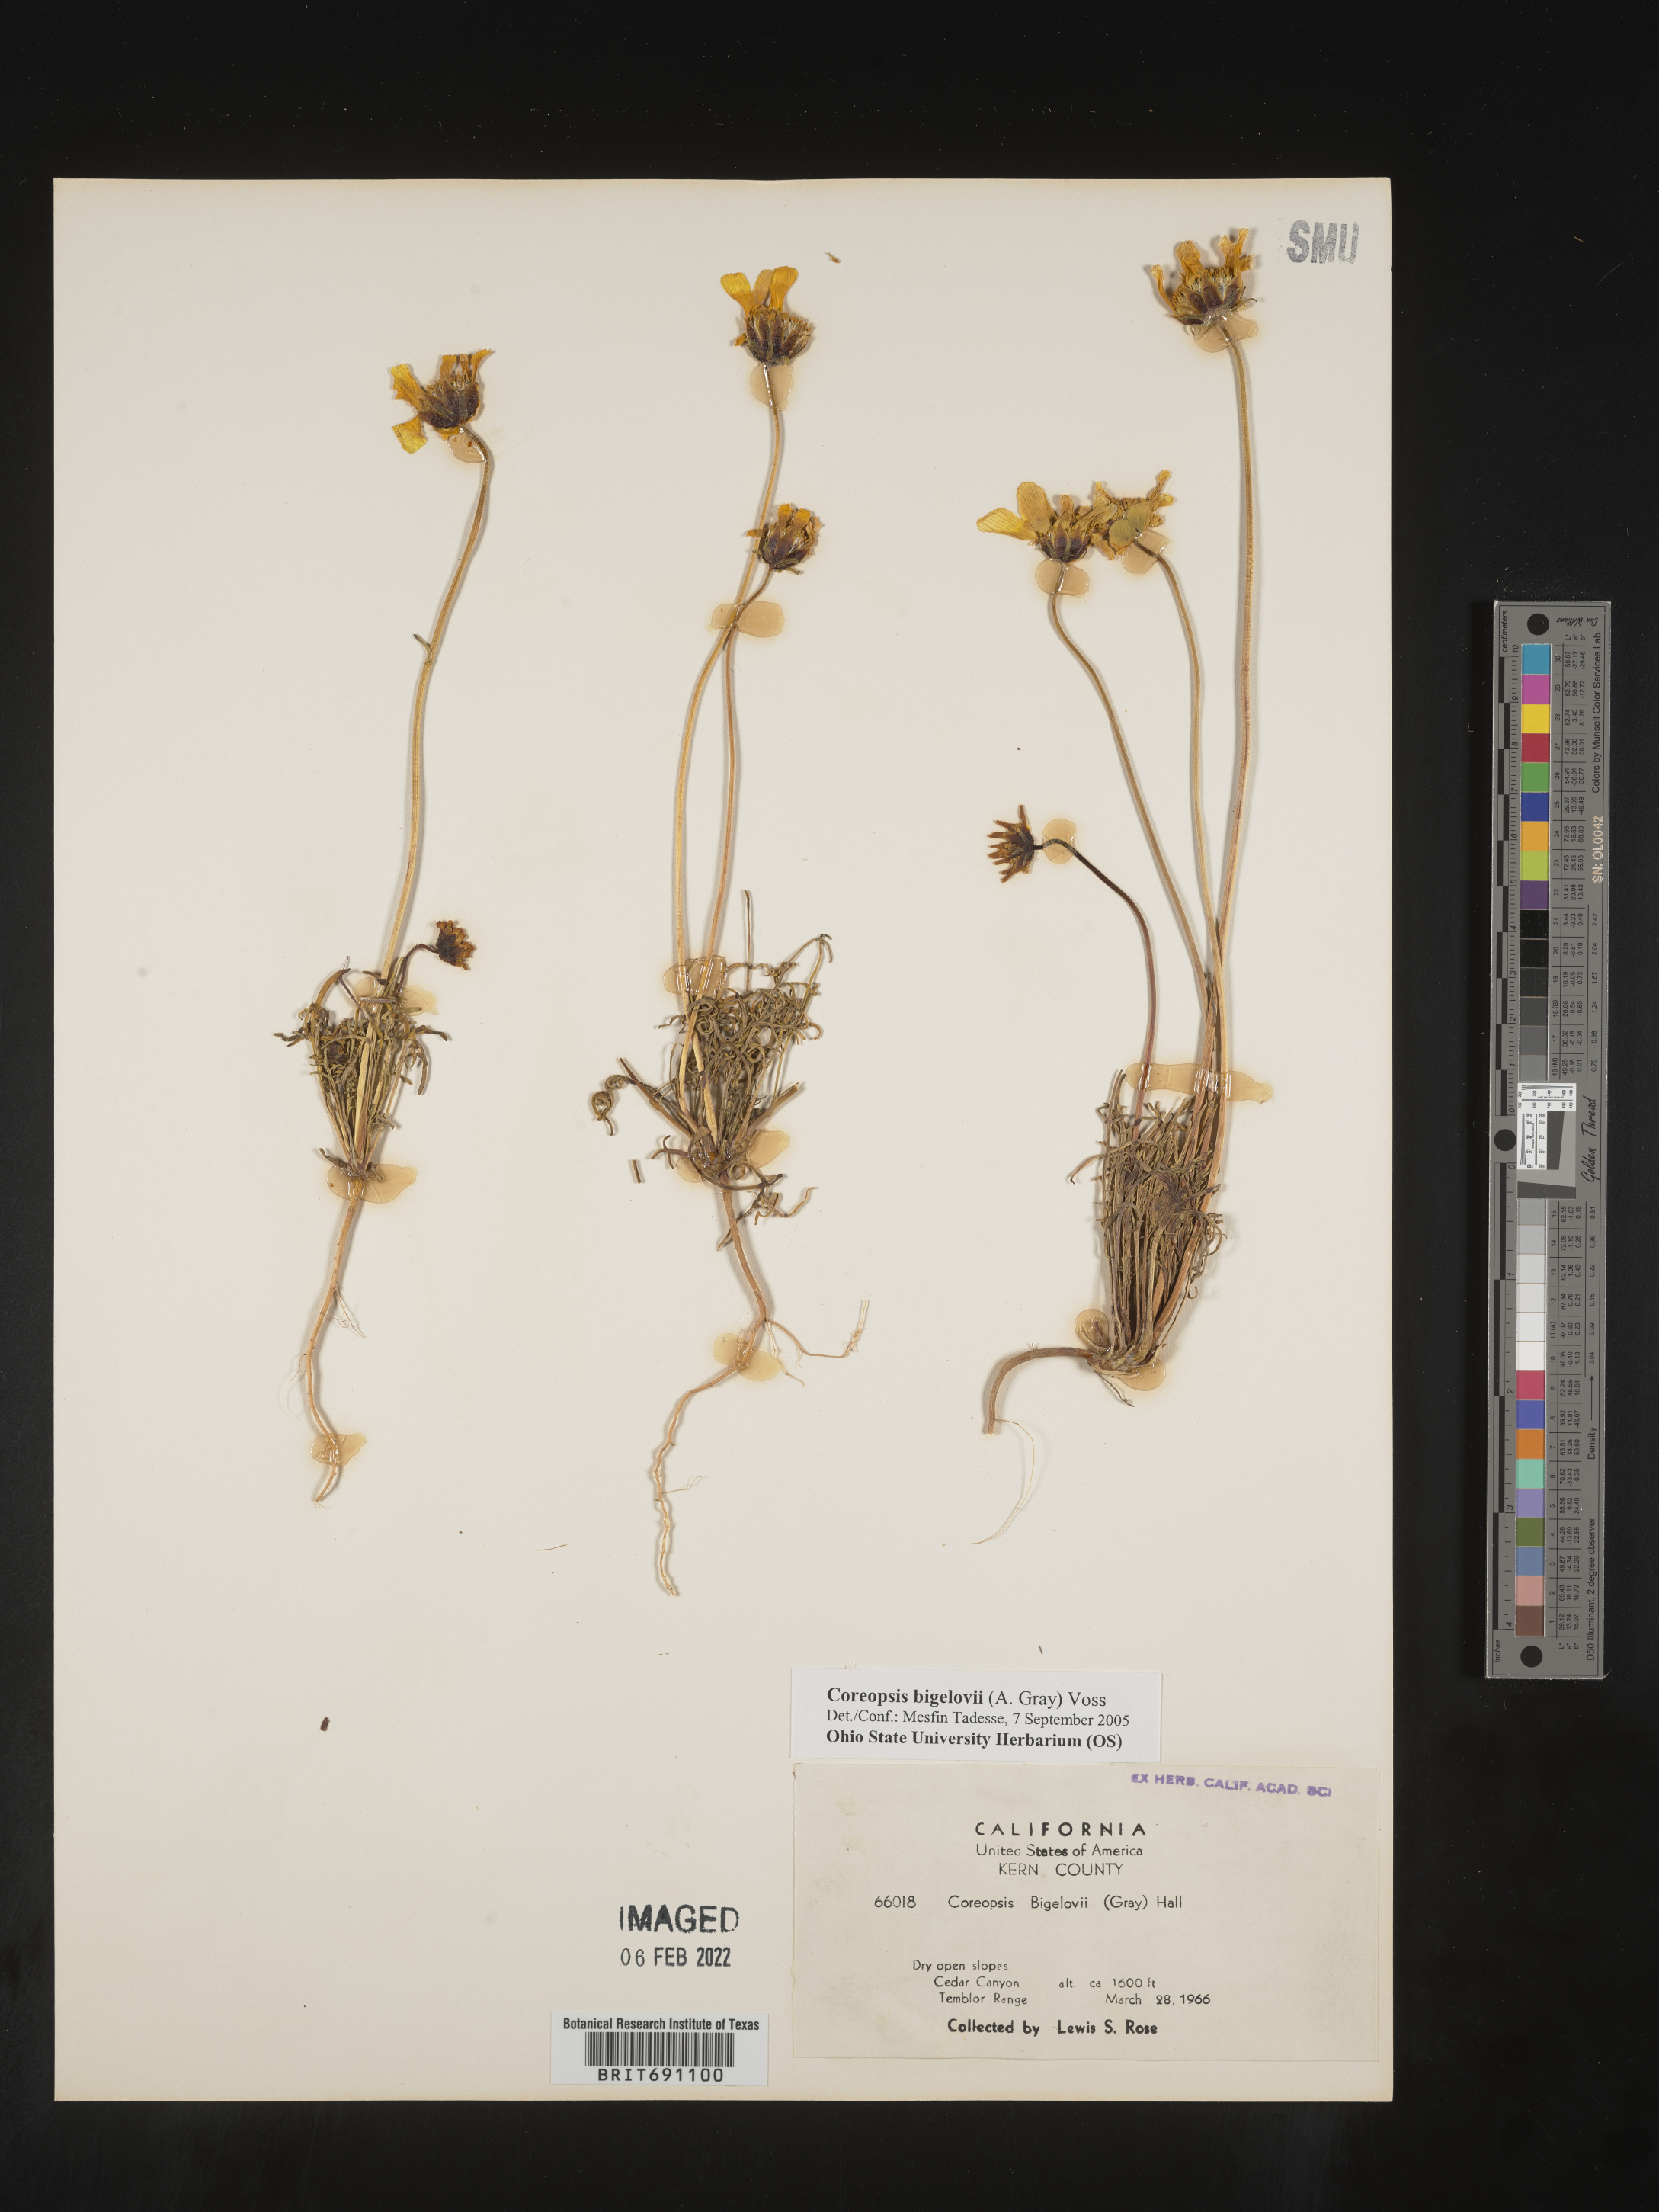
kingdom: Plantae
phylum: Tracheophyta
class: Magnoliopsida
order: Asterales
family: Asteraceae
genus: Coreopsis
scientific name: Coreopsis
